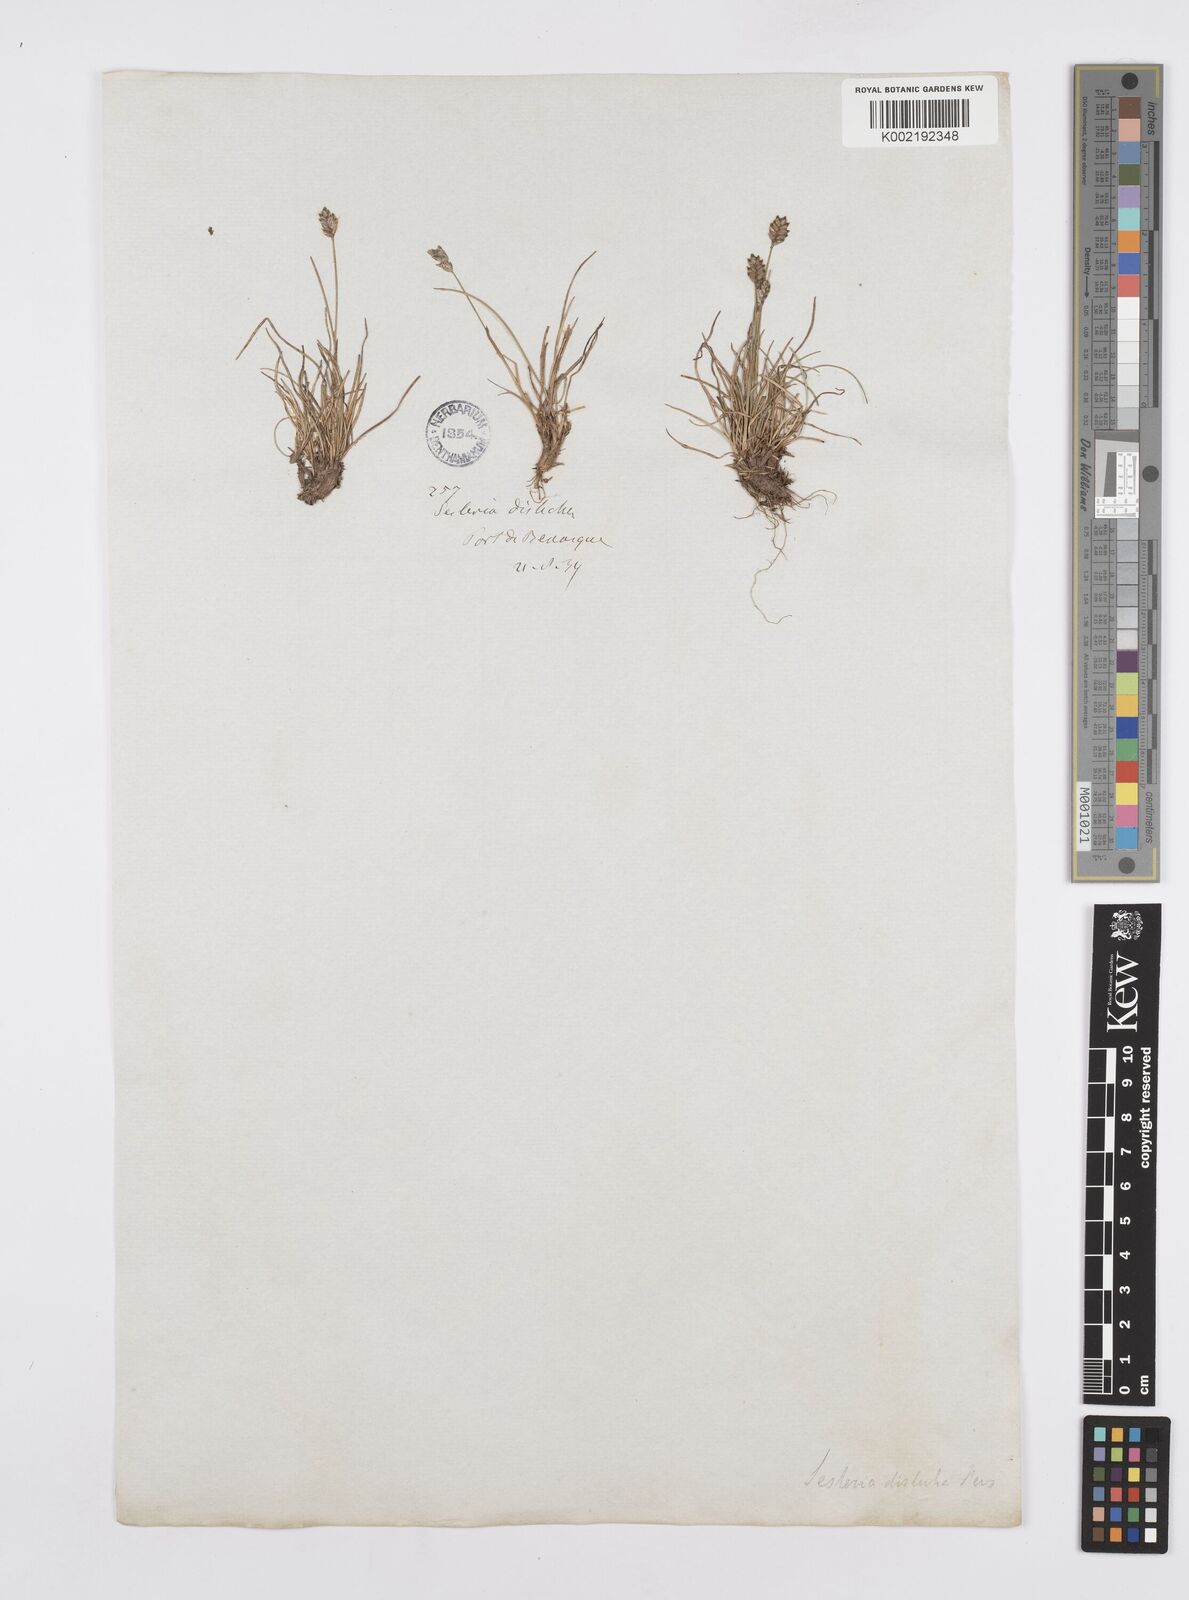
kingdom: Plantae
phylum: Tracheophyta
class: Liliopsida
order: Poales
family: Poaceae
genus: Oreochloa
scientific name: Oreochloa elegans
